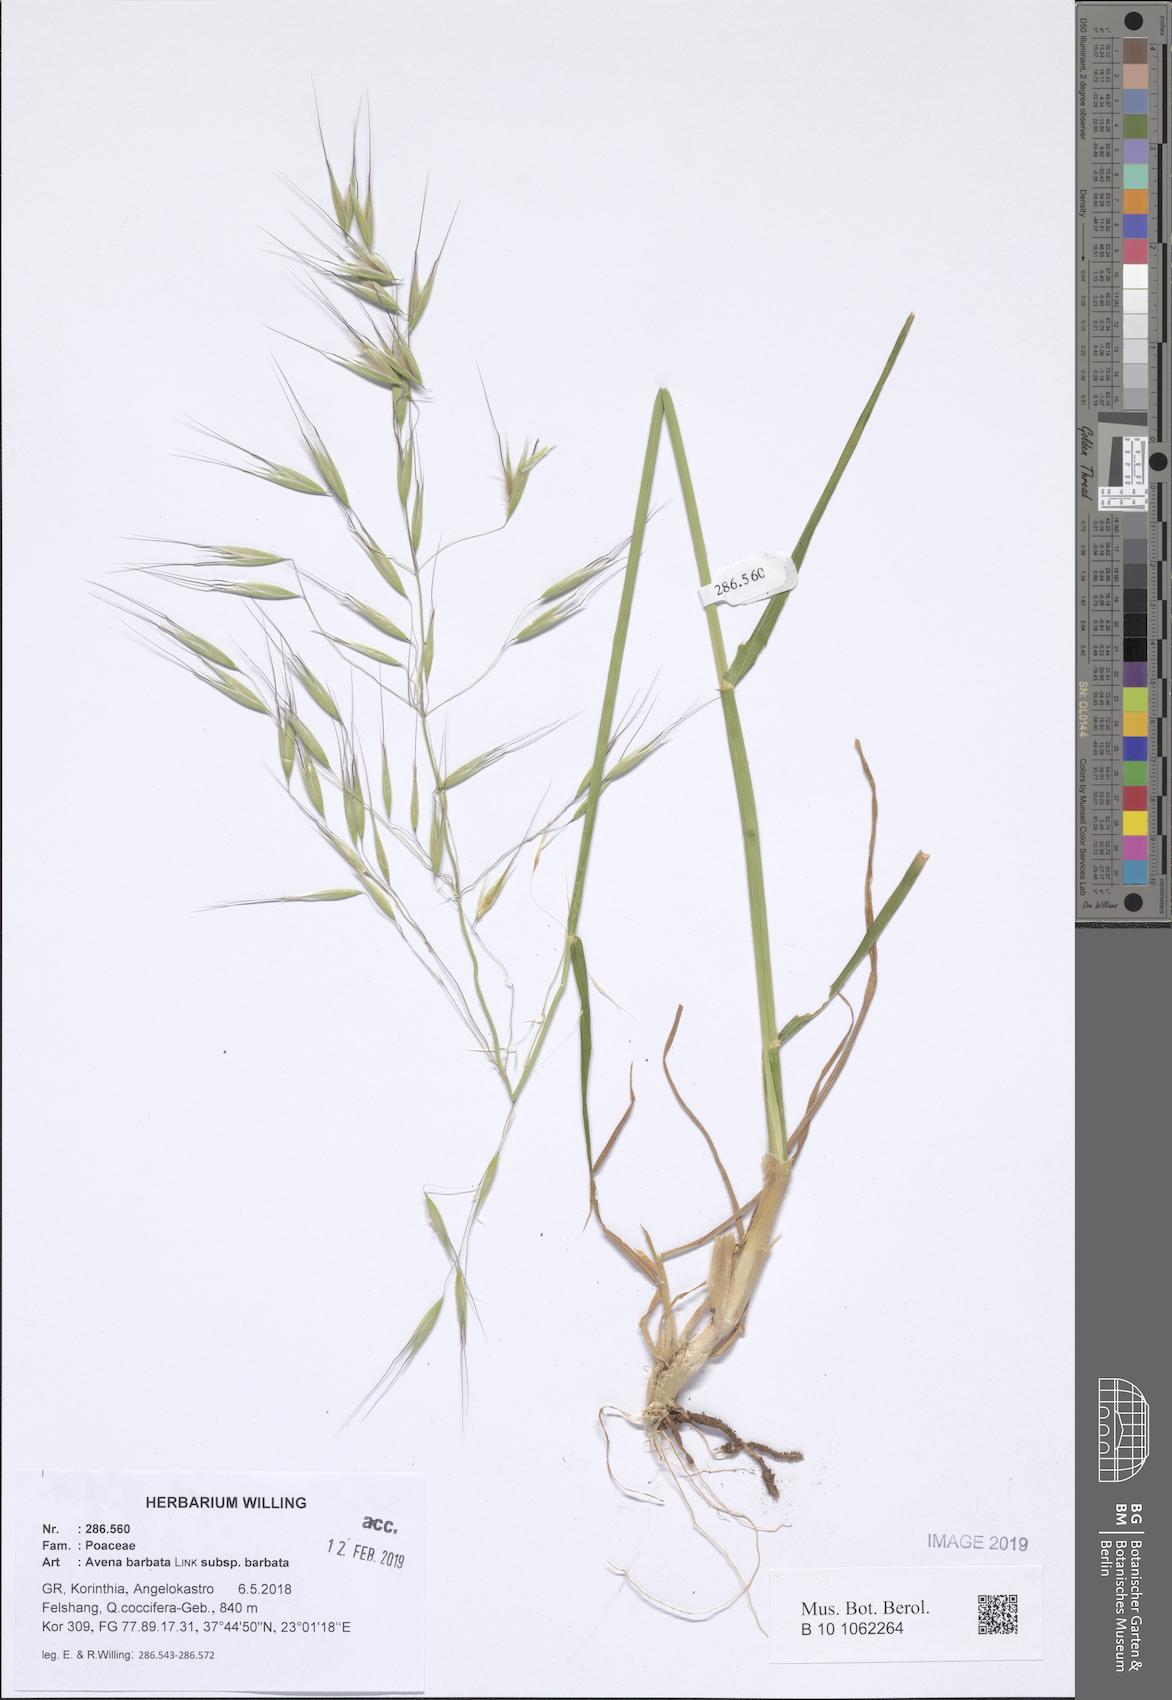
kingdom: Plantae
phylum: Tracheophyta
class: Liliopsida
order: Poales
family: Poaceae
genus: Avena
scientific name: Avena barbata
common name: Slender oat
